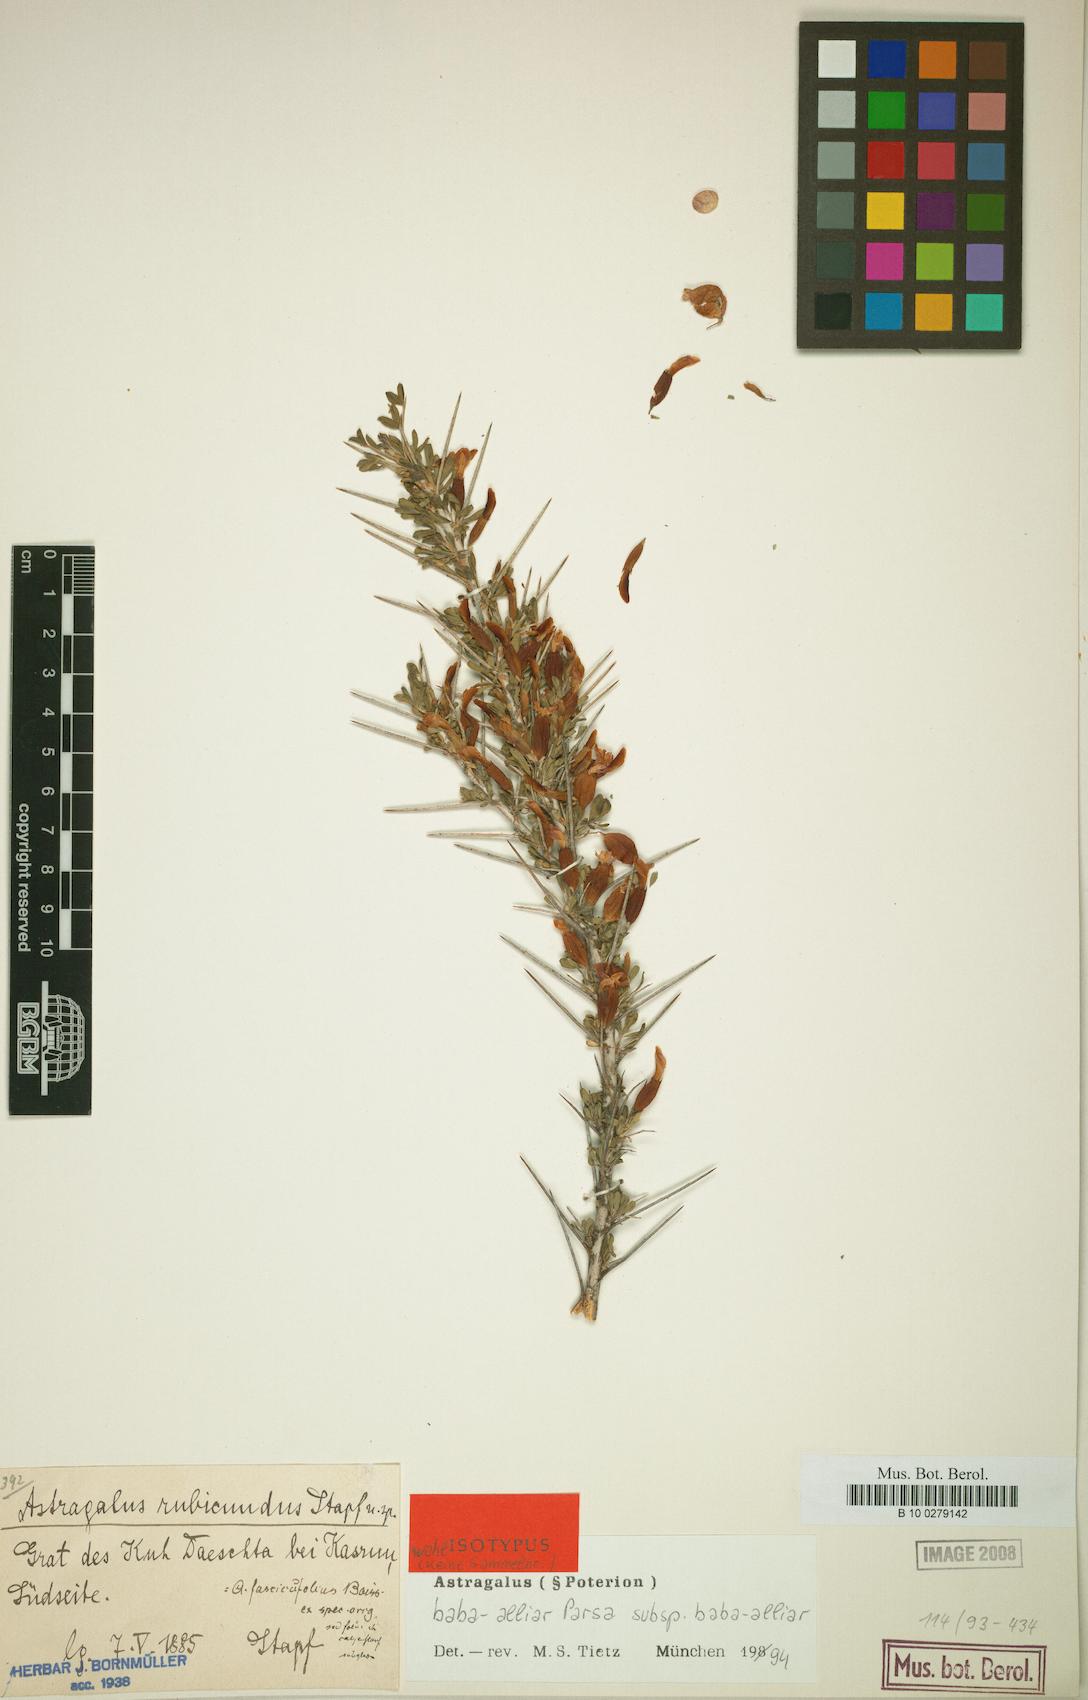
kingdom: Plantae
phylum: Tracheophyta
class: Magnoliopsida
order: Fabales
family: Fabaceae
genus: Astragalus
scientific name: Astragalus baba-alliar
